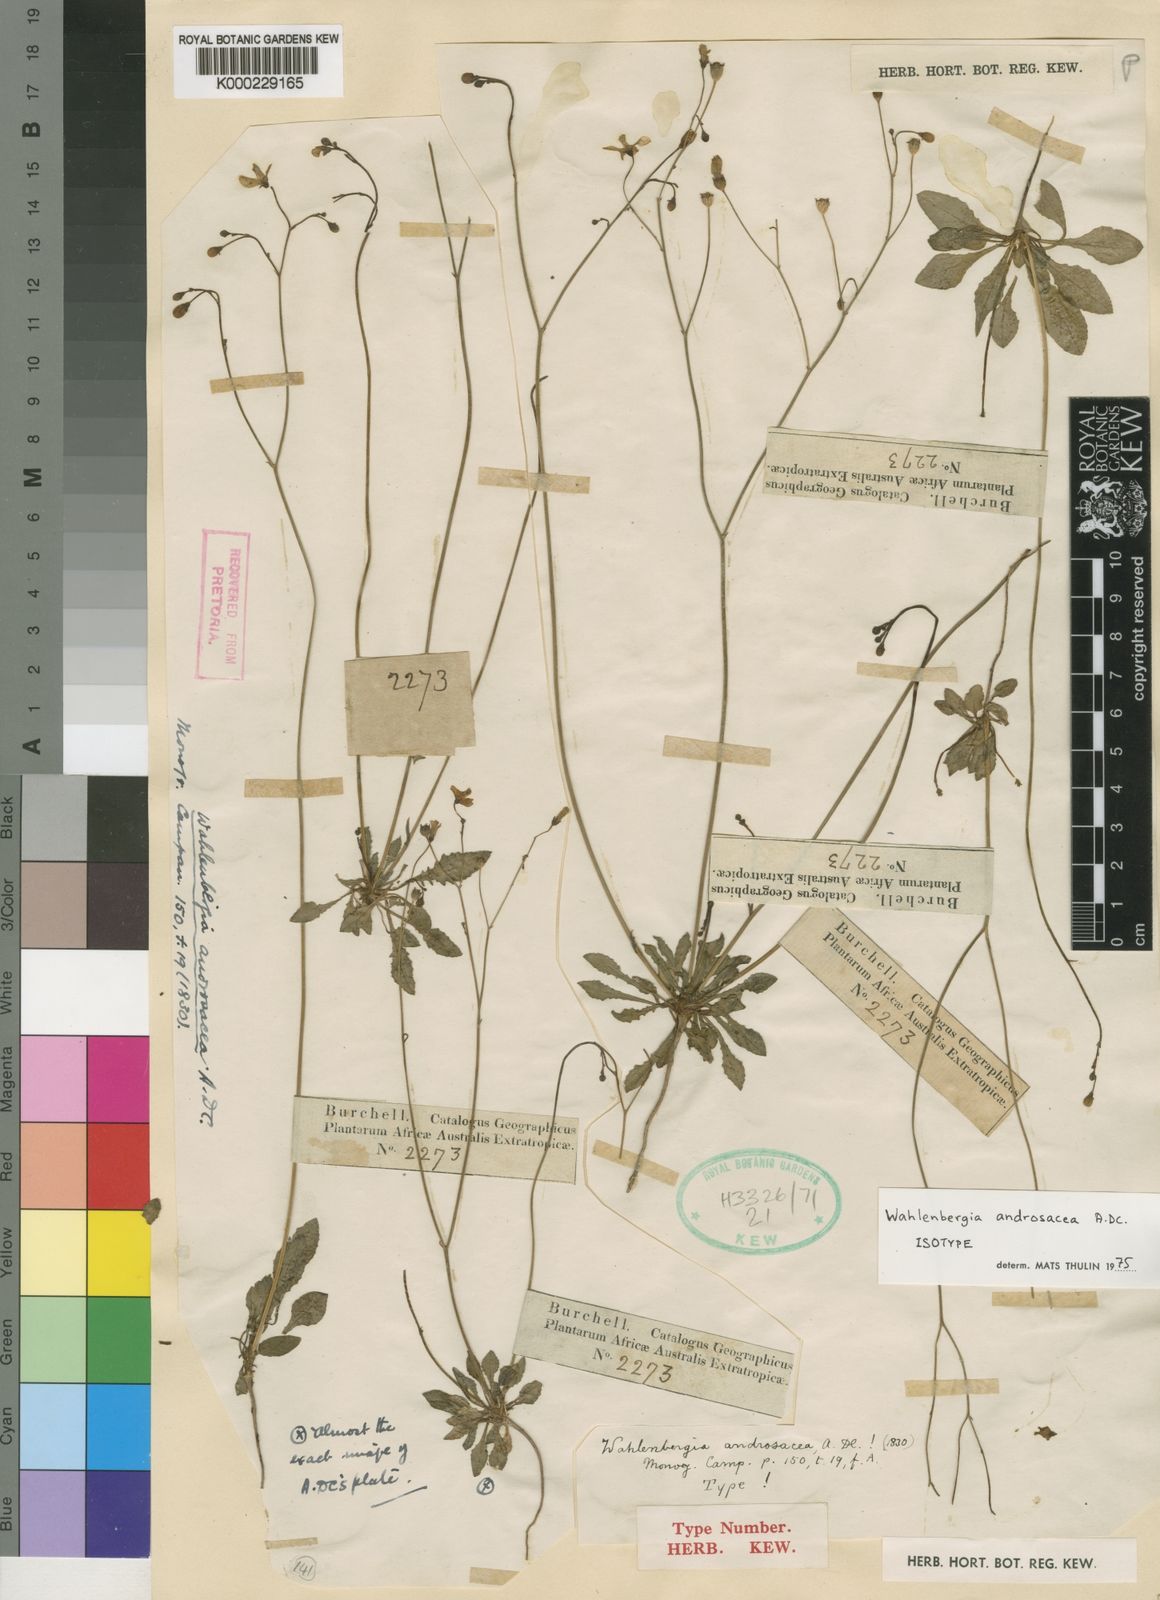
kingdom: Plantae
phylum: Tracheophyta
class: Magnoliopsida
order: Asterales
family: Campanulaceae
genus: Wahlenbergia
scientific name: Wahlenbergia androsacea
